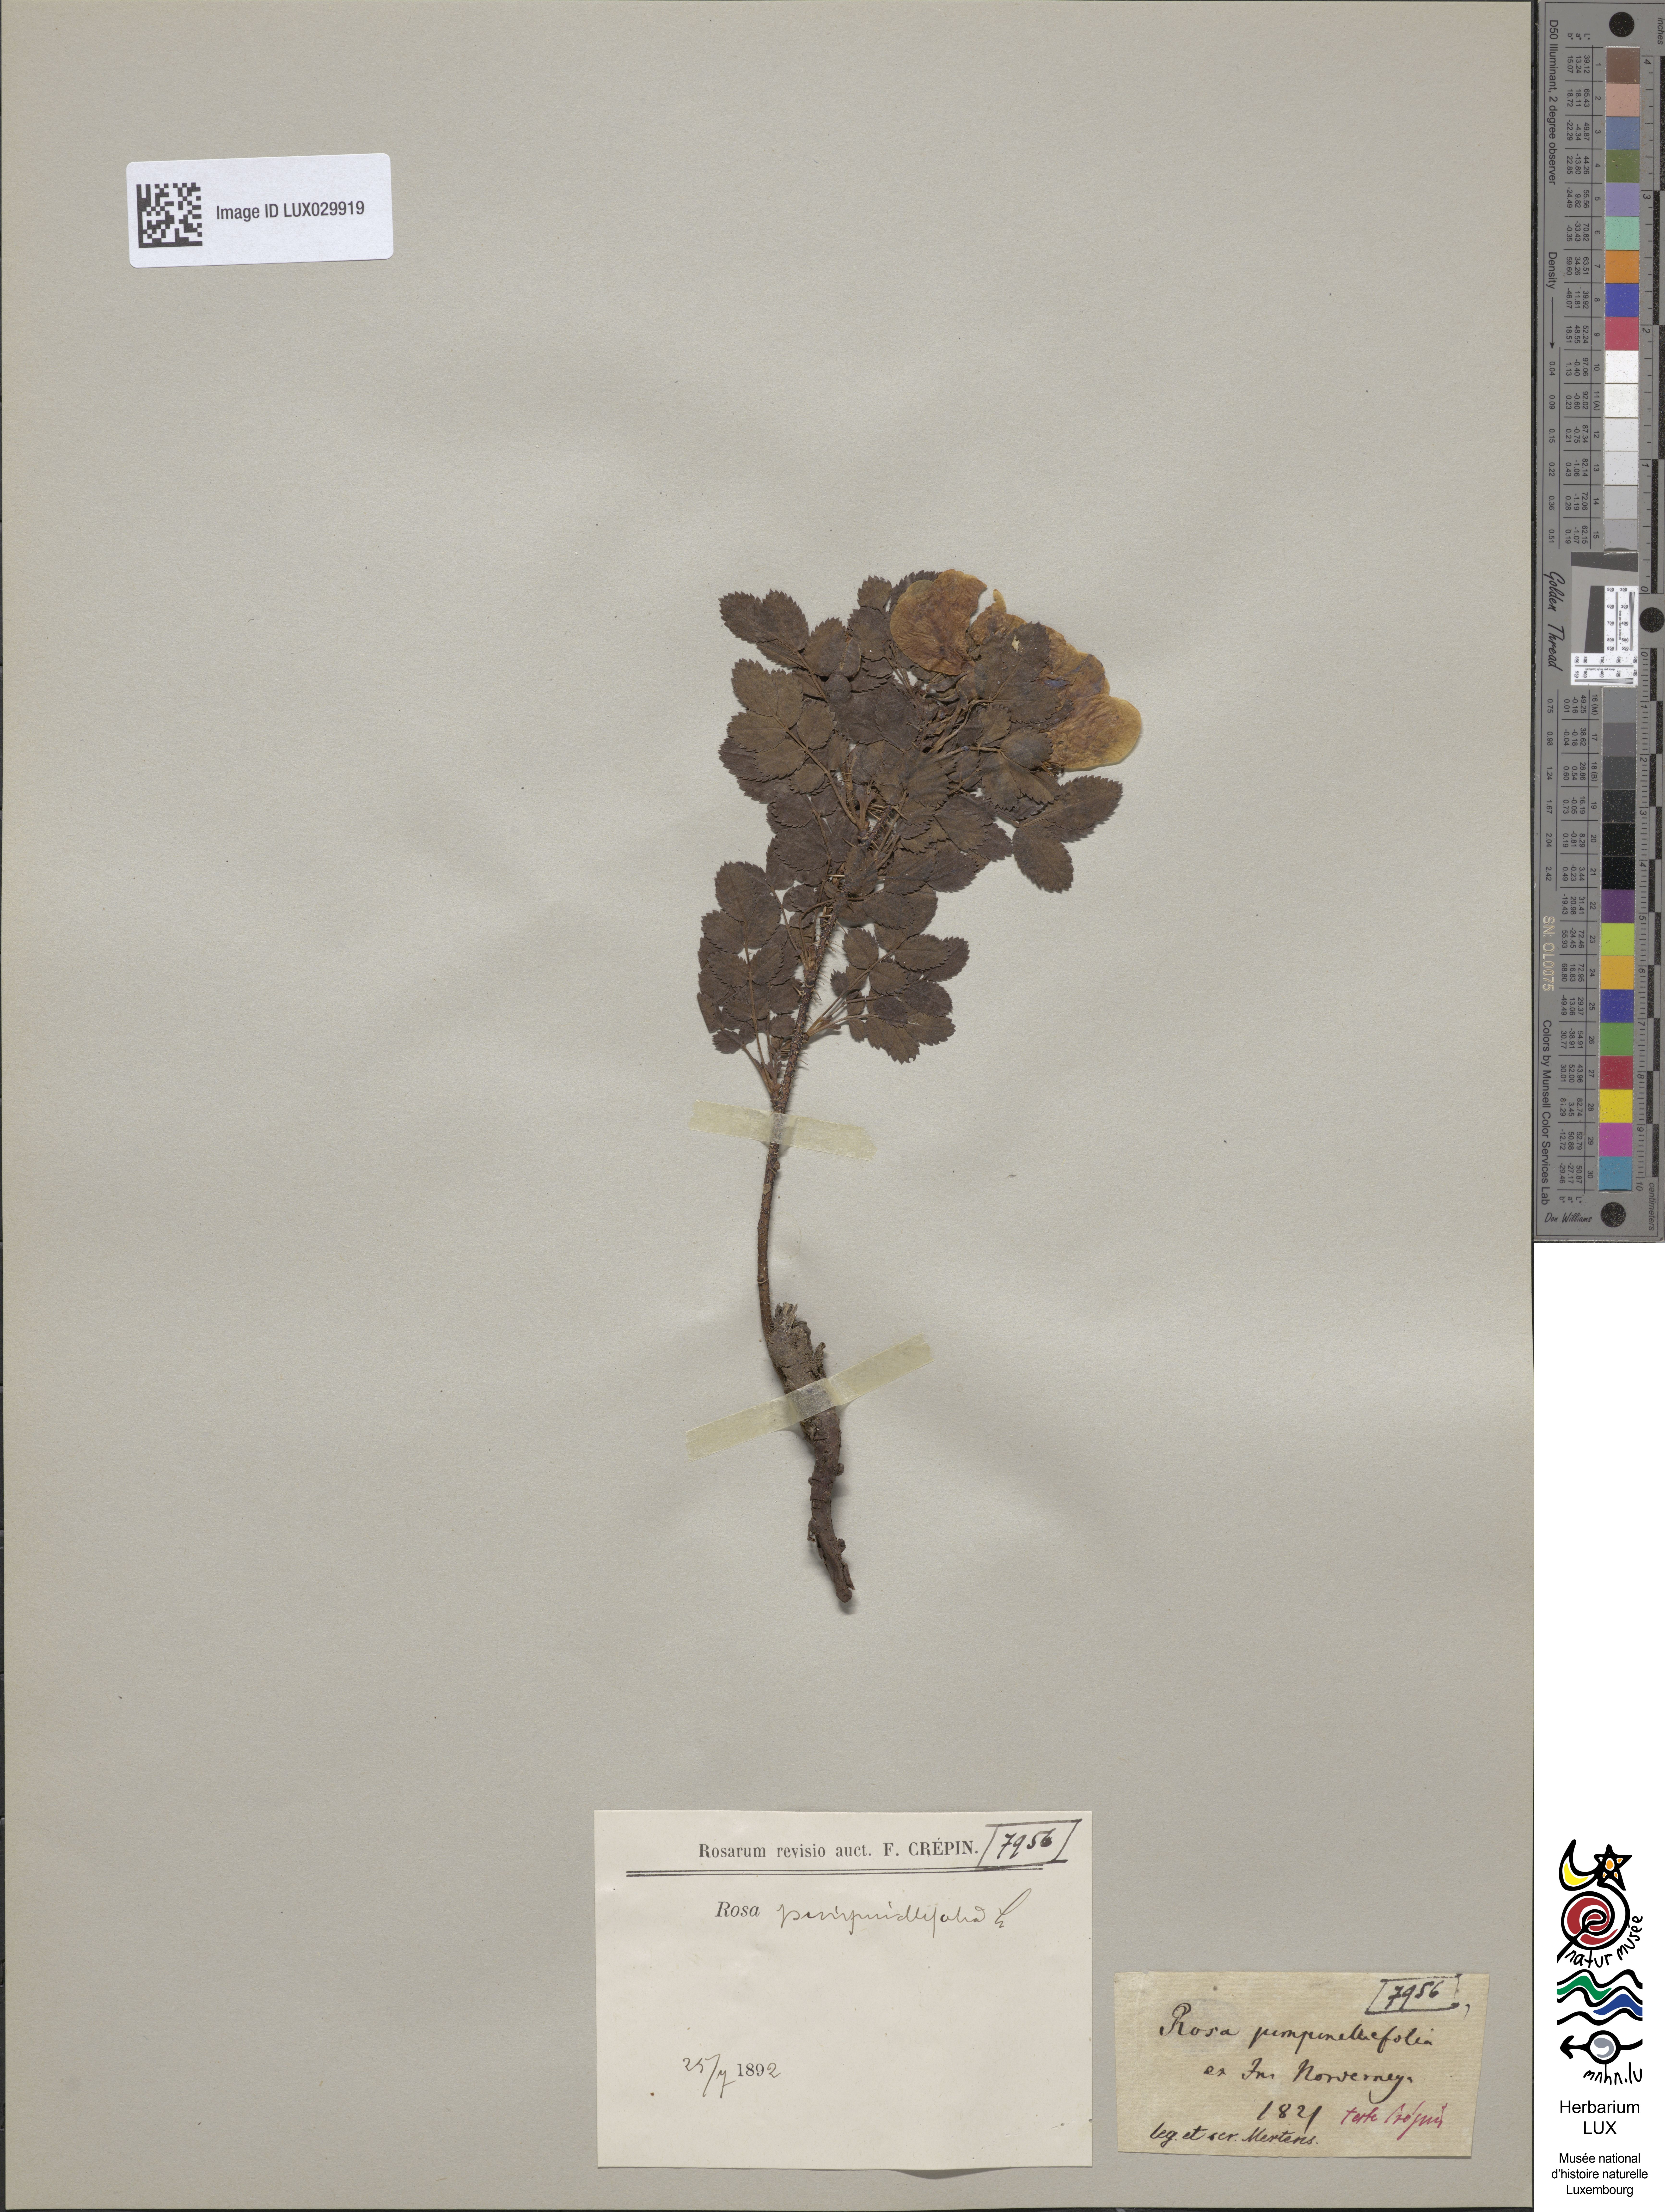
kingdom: Plantae
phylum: Tracheophyta
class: Magnoliopsida
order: Rosales
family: Rosaceae
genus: Rosa
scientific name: Rosa
